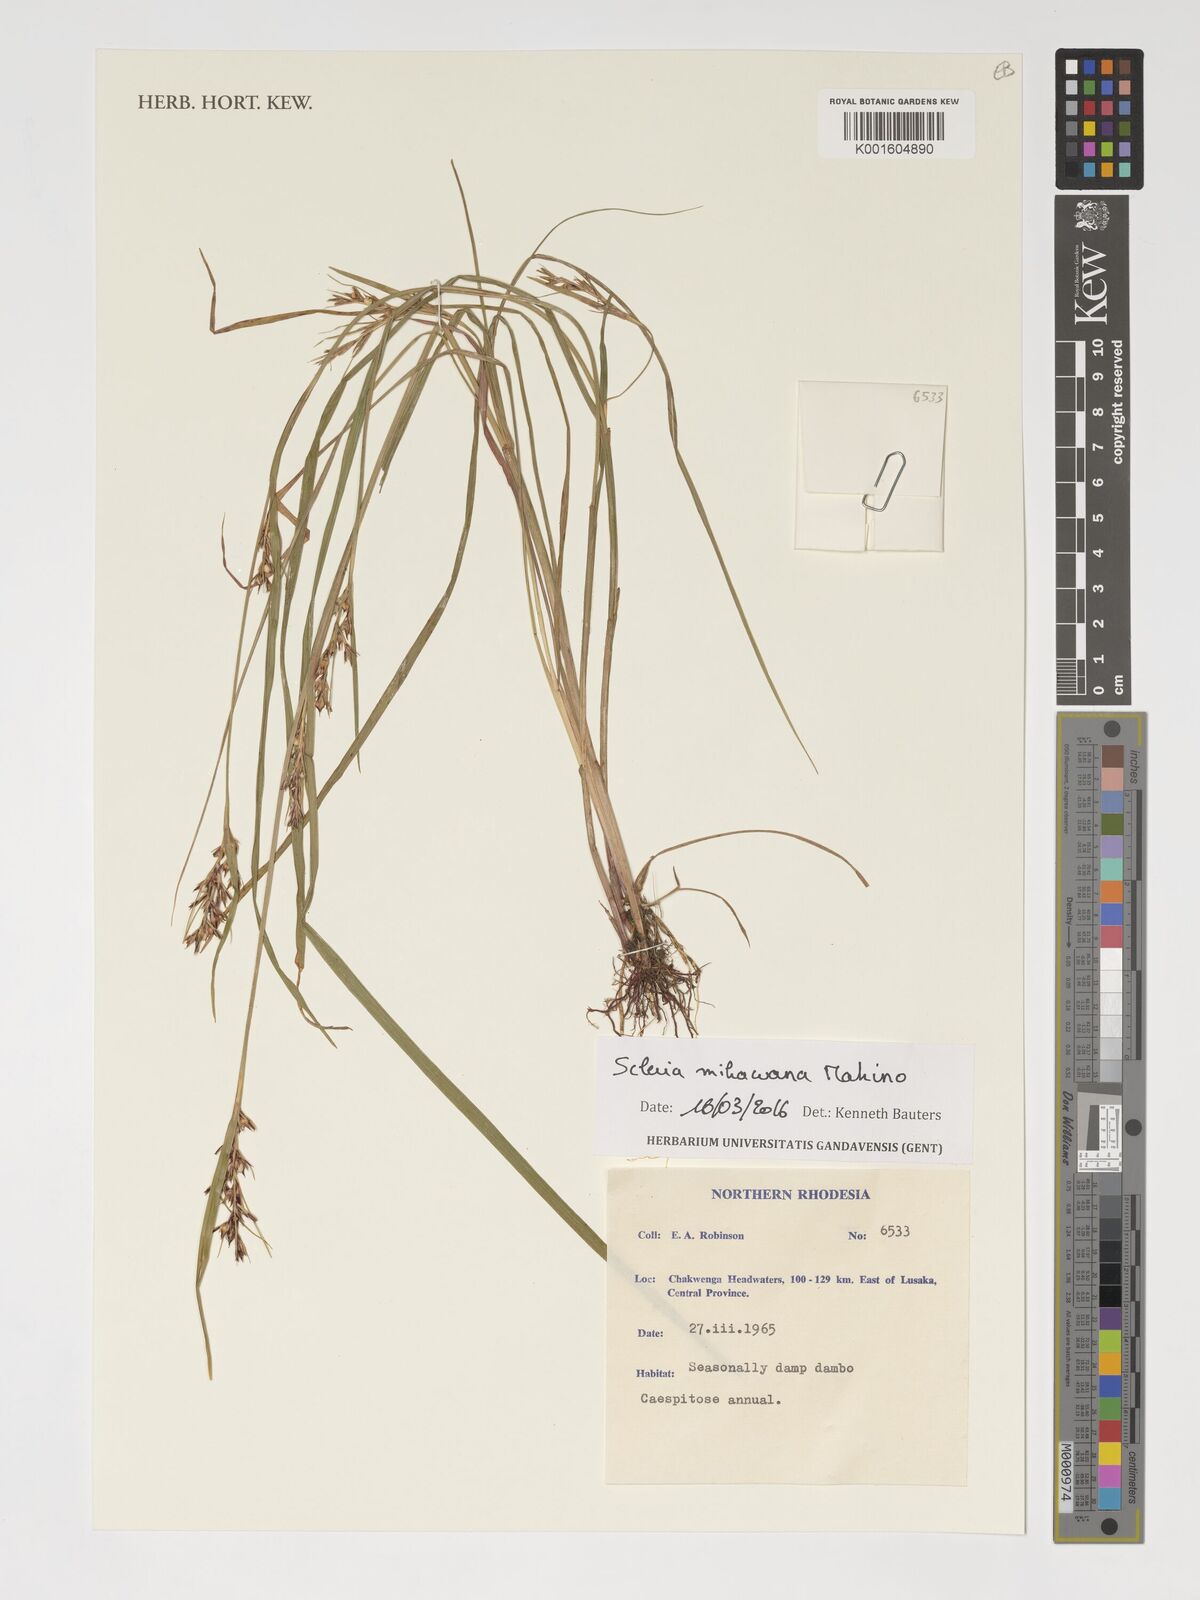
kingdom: Plantae
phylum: Tracheophyta
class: Liliopsida
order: Poales
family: Cyperaceae
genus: Scleria
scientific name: Scleria mikawana
